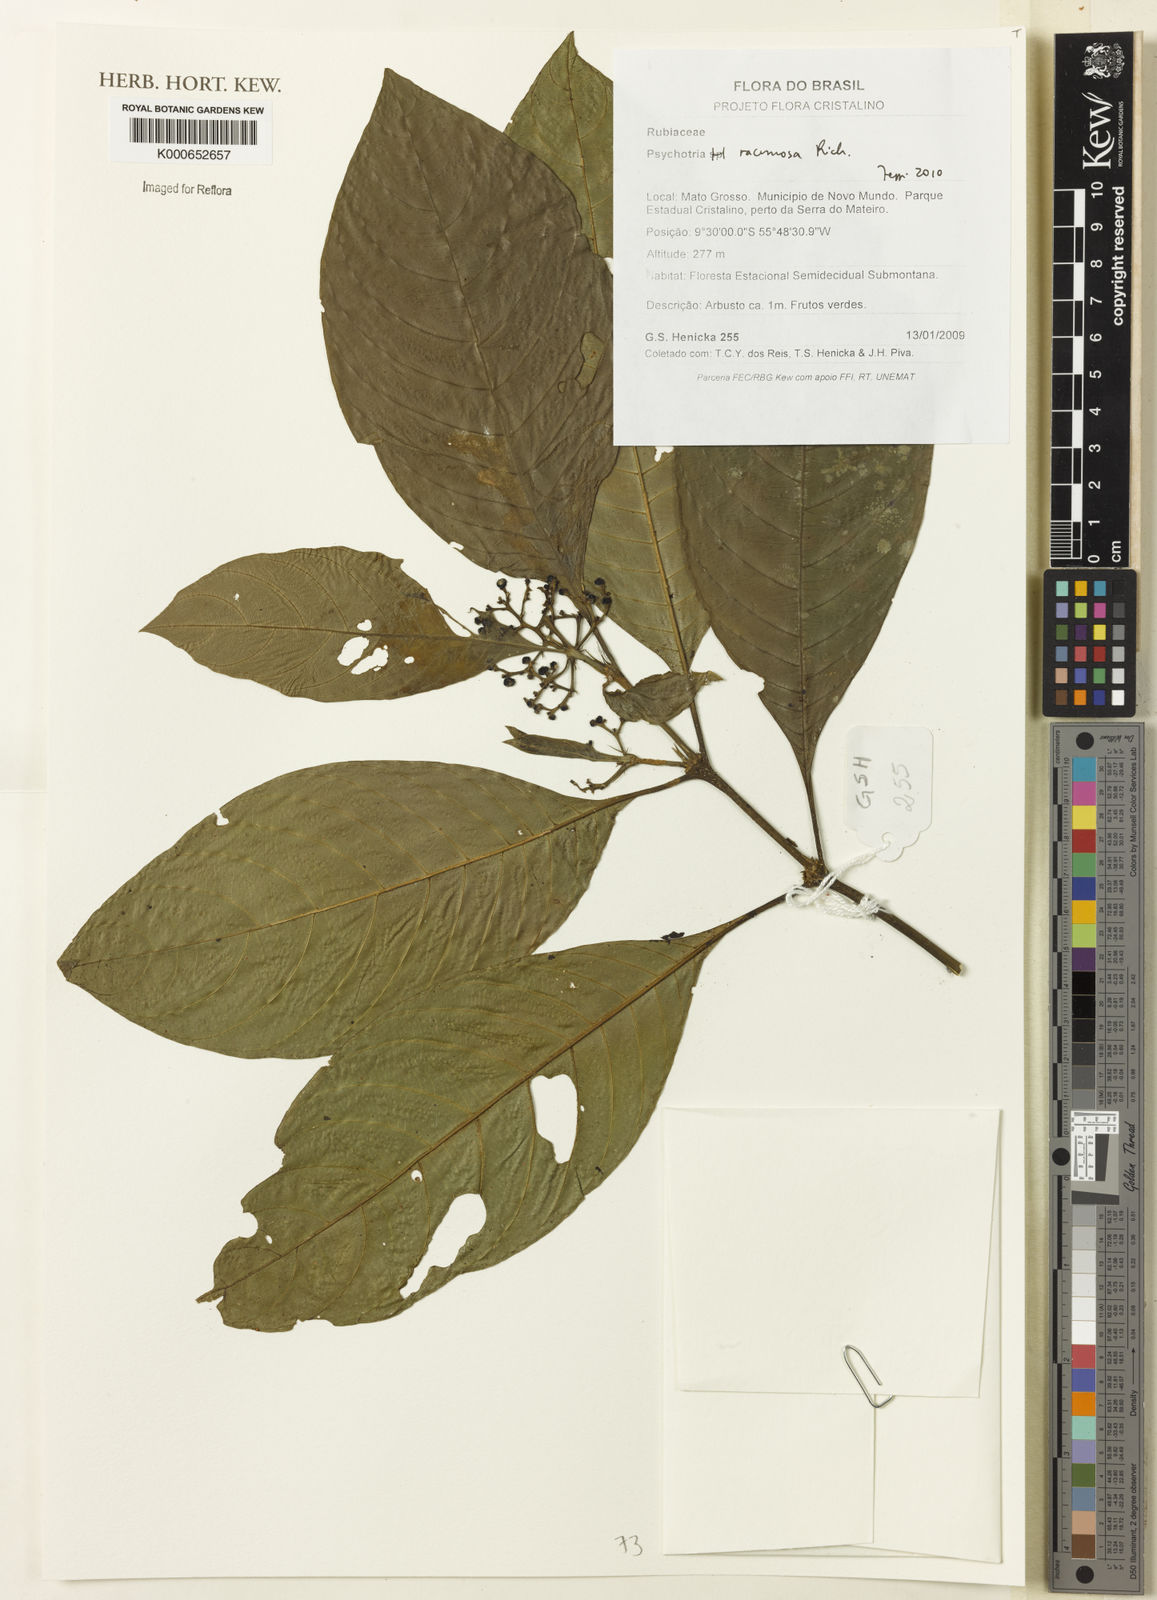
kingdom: Plantae
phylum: Tracheophyta
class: Magnoliopsida
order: Gentianales
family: Rubiaceae
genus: Palicourea
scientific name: Palicourea racemosa
